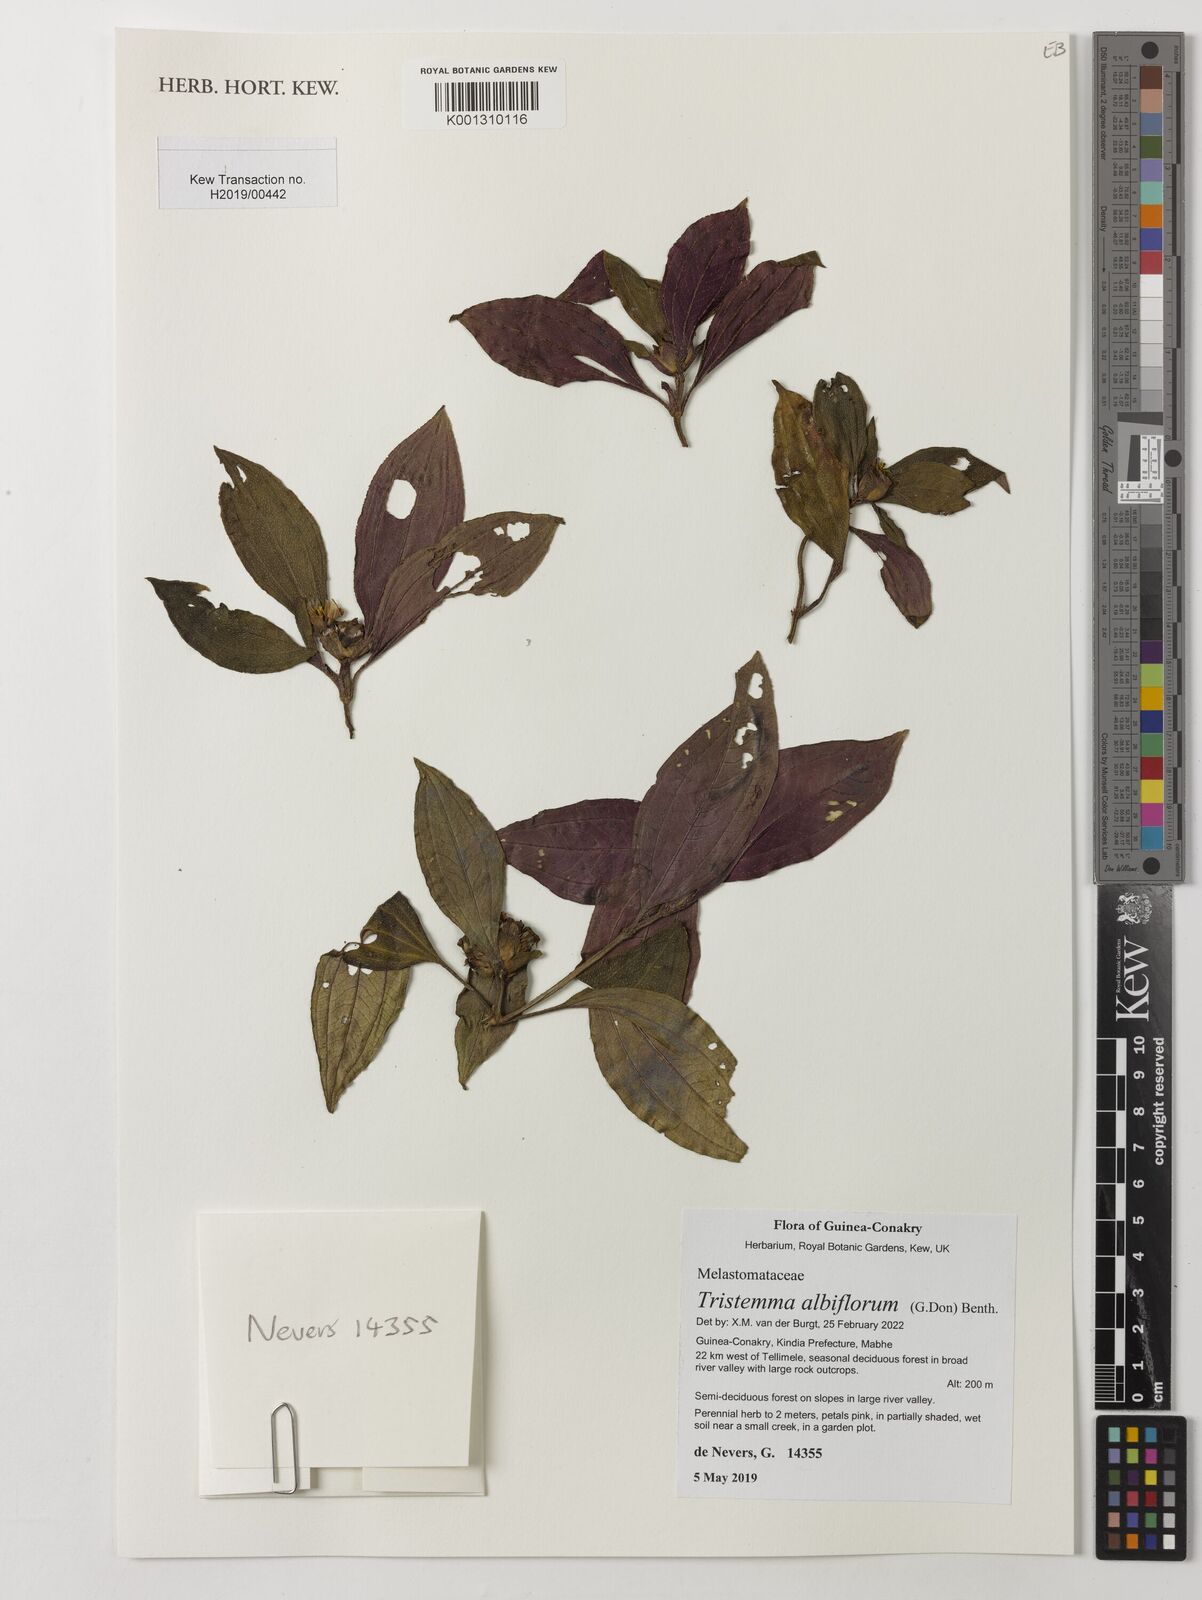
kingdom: Plantae
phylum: Tracheophyta
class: Magnoliopsida
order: Myrtales
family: Melastomataceae
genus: Tristemma
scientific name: Tristemma albiflorum
